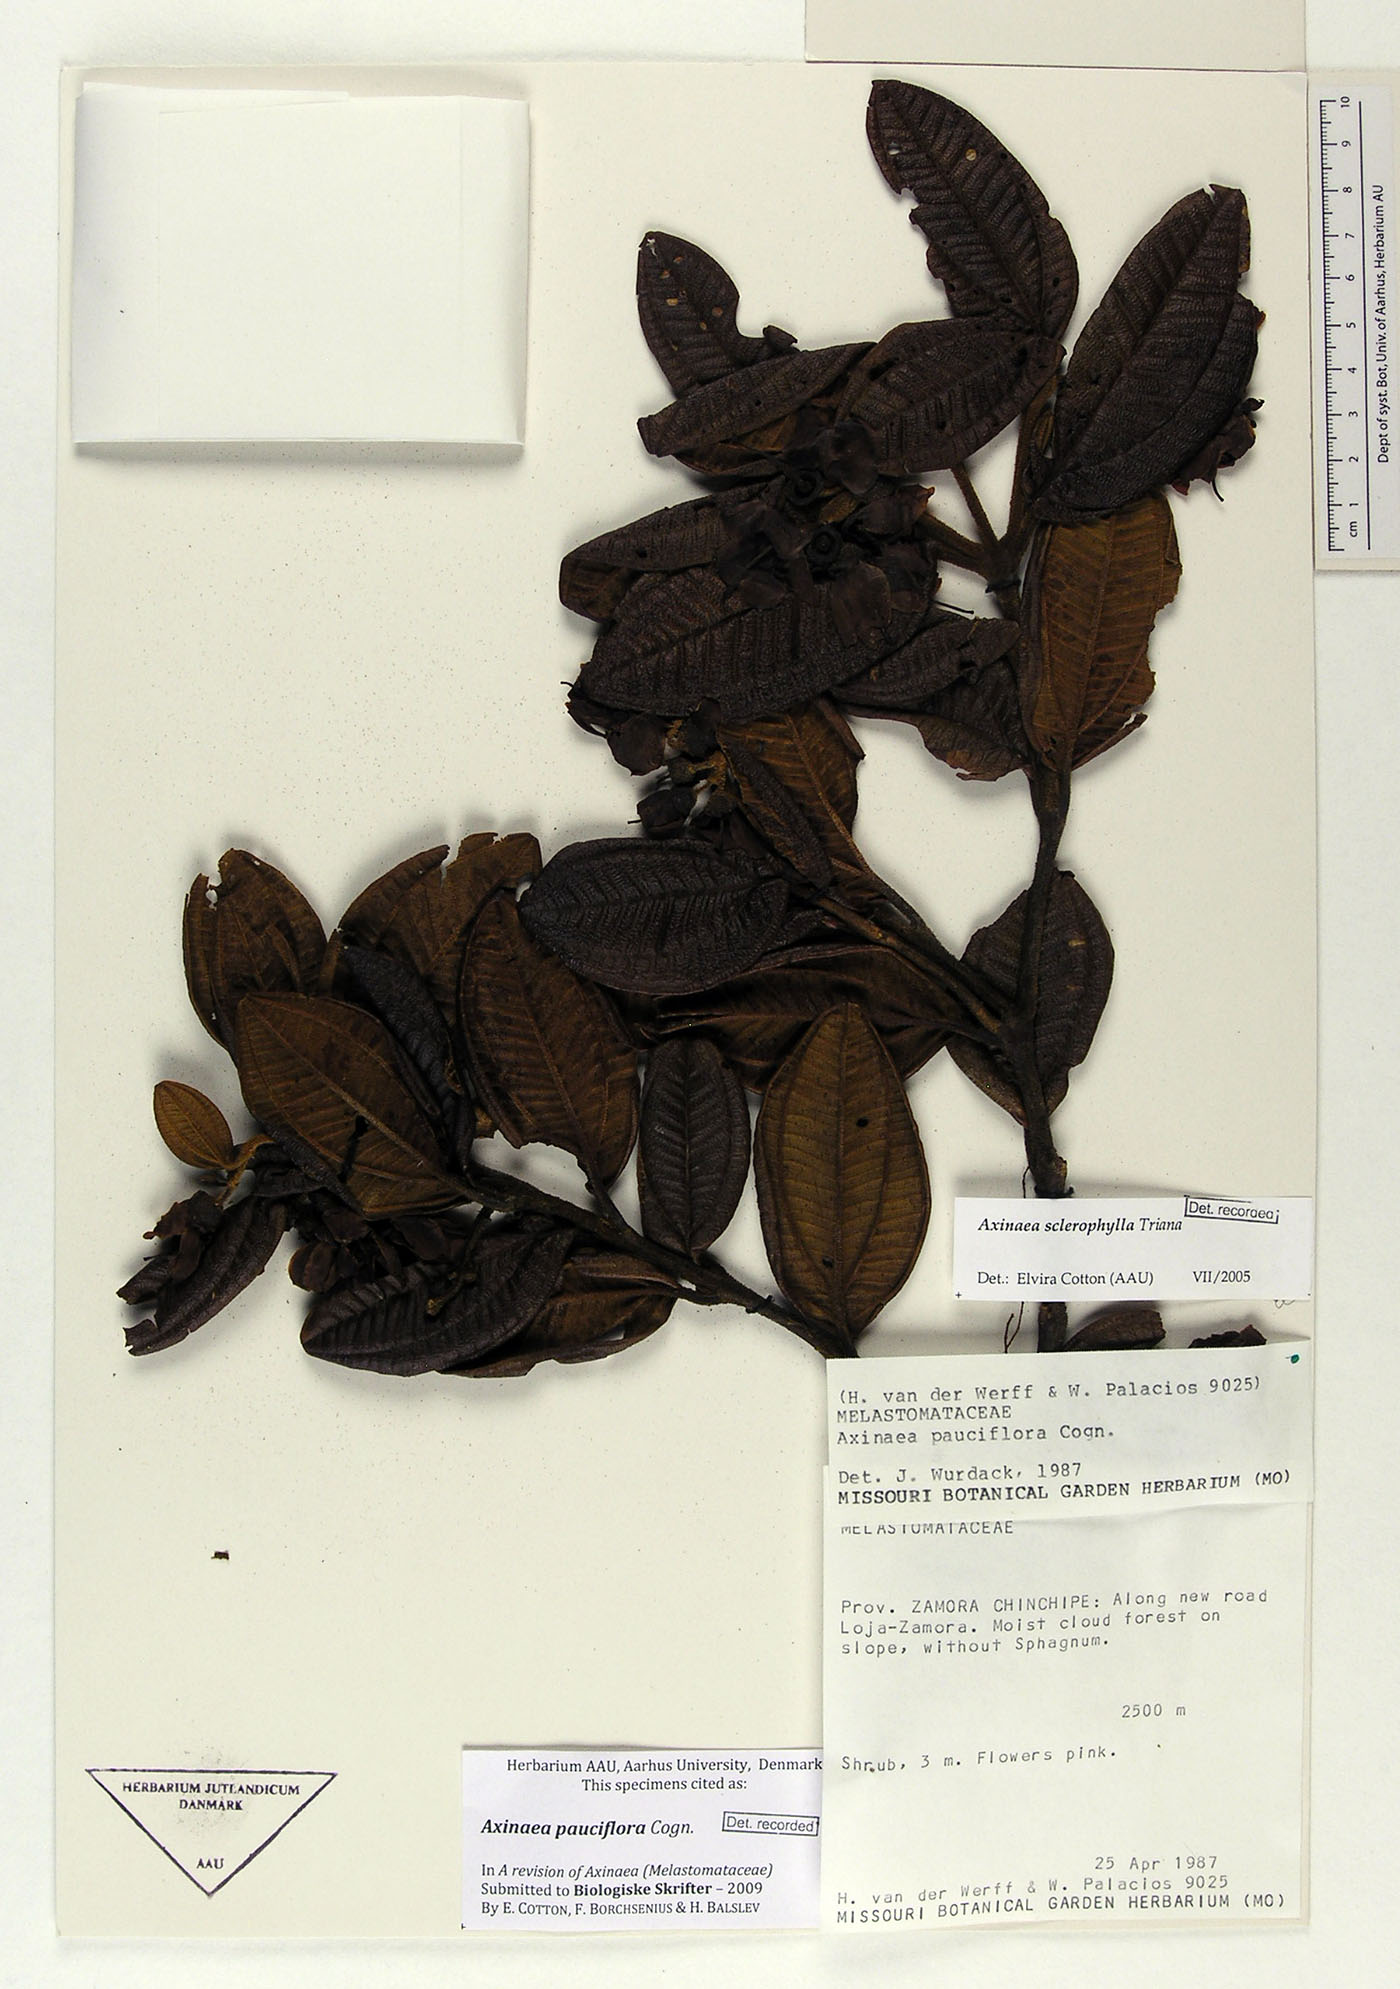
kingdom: Plantae
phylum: Tracheophyta
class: Magnoliopsida
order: Myrtales
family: Melastomataceae
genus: Axinaea
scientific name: Axinaea pauciflora
